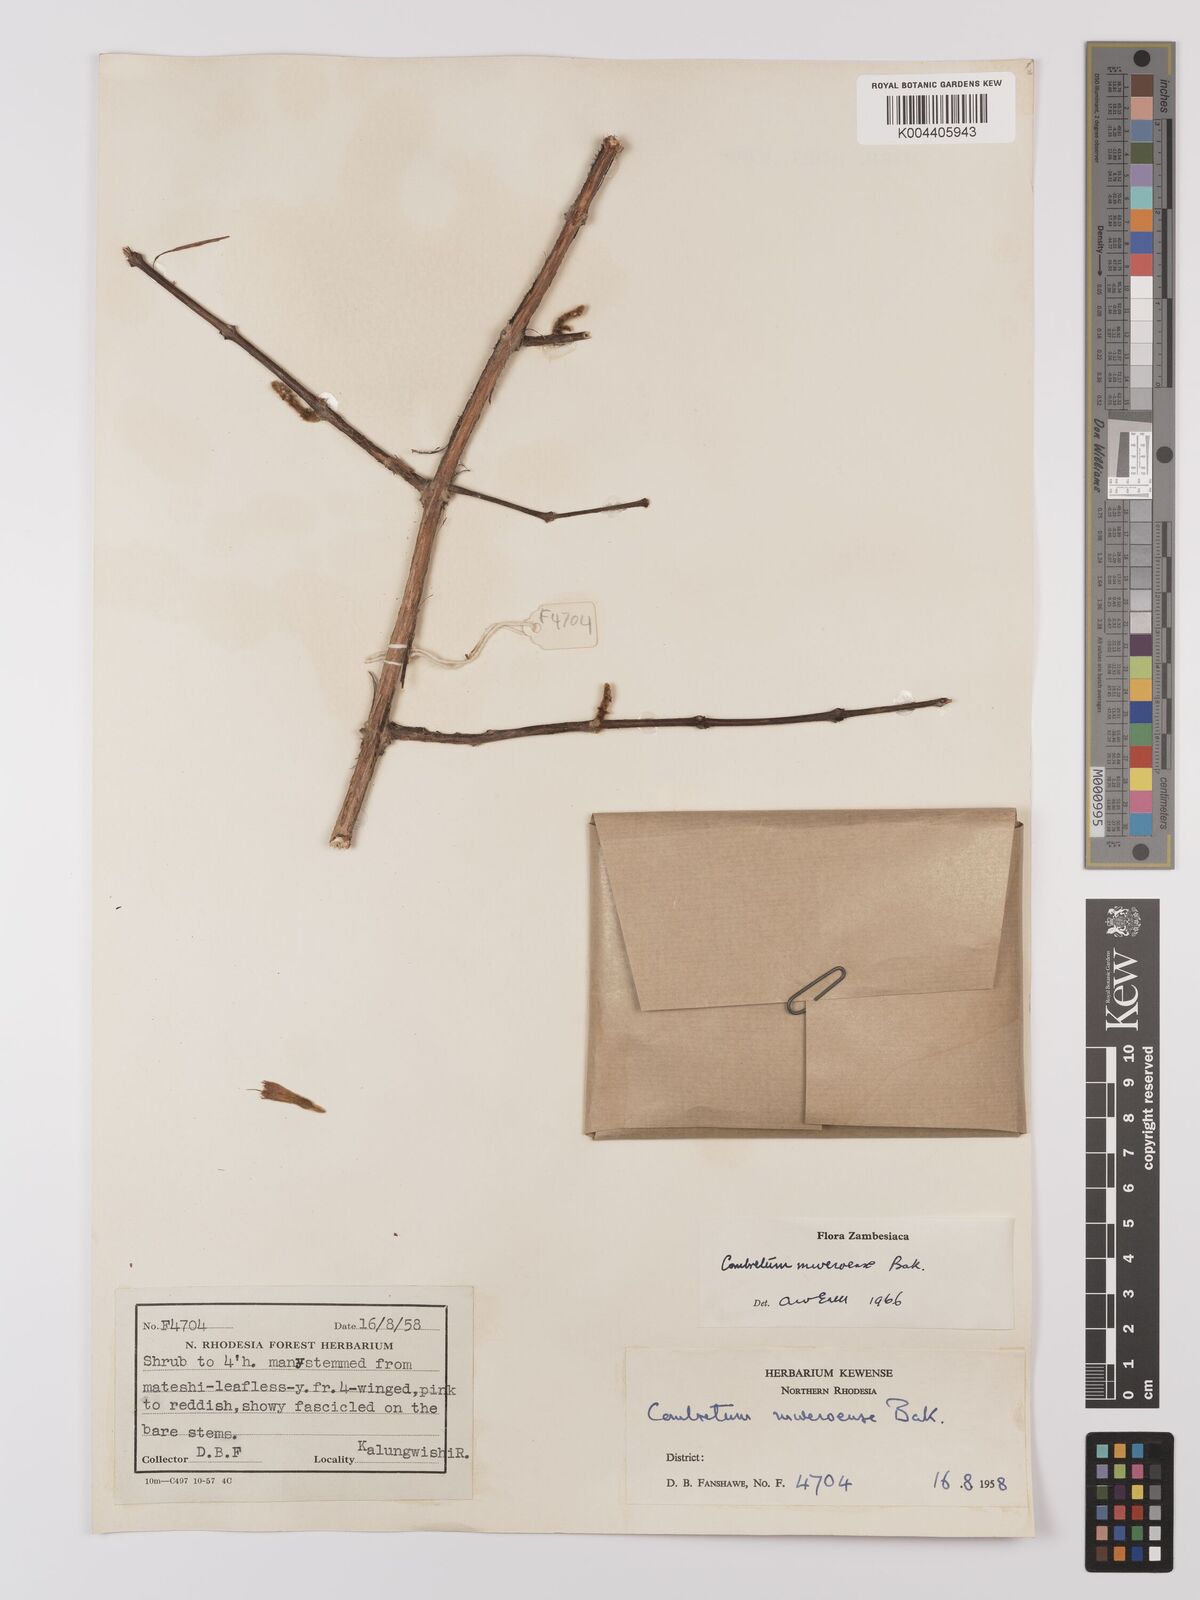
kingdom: Plantae
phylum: Tracheophyta
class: Magnoliopsida
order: Myrtales
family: Combretaceae
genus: Combretum
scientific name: Combretum mweroense
